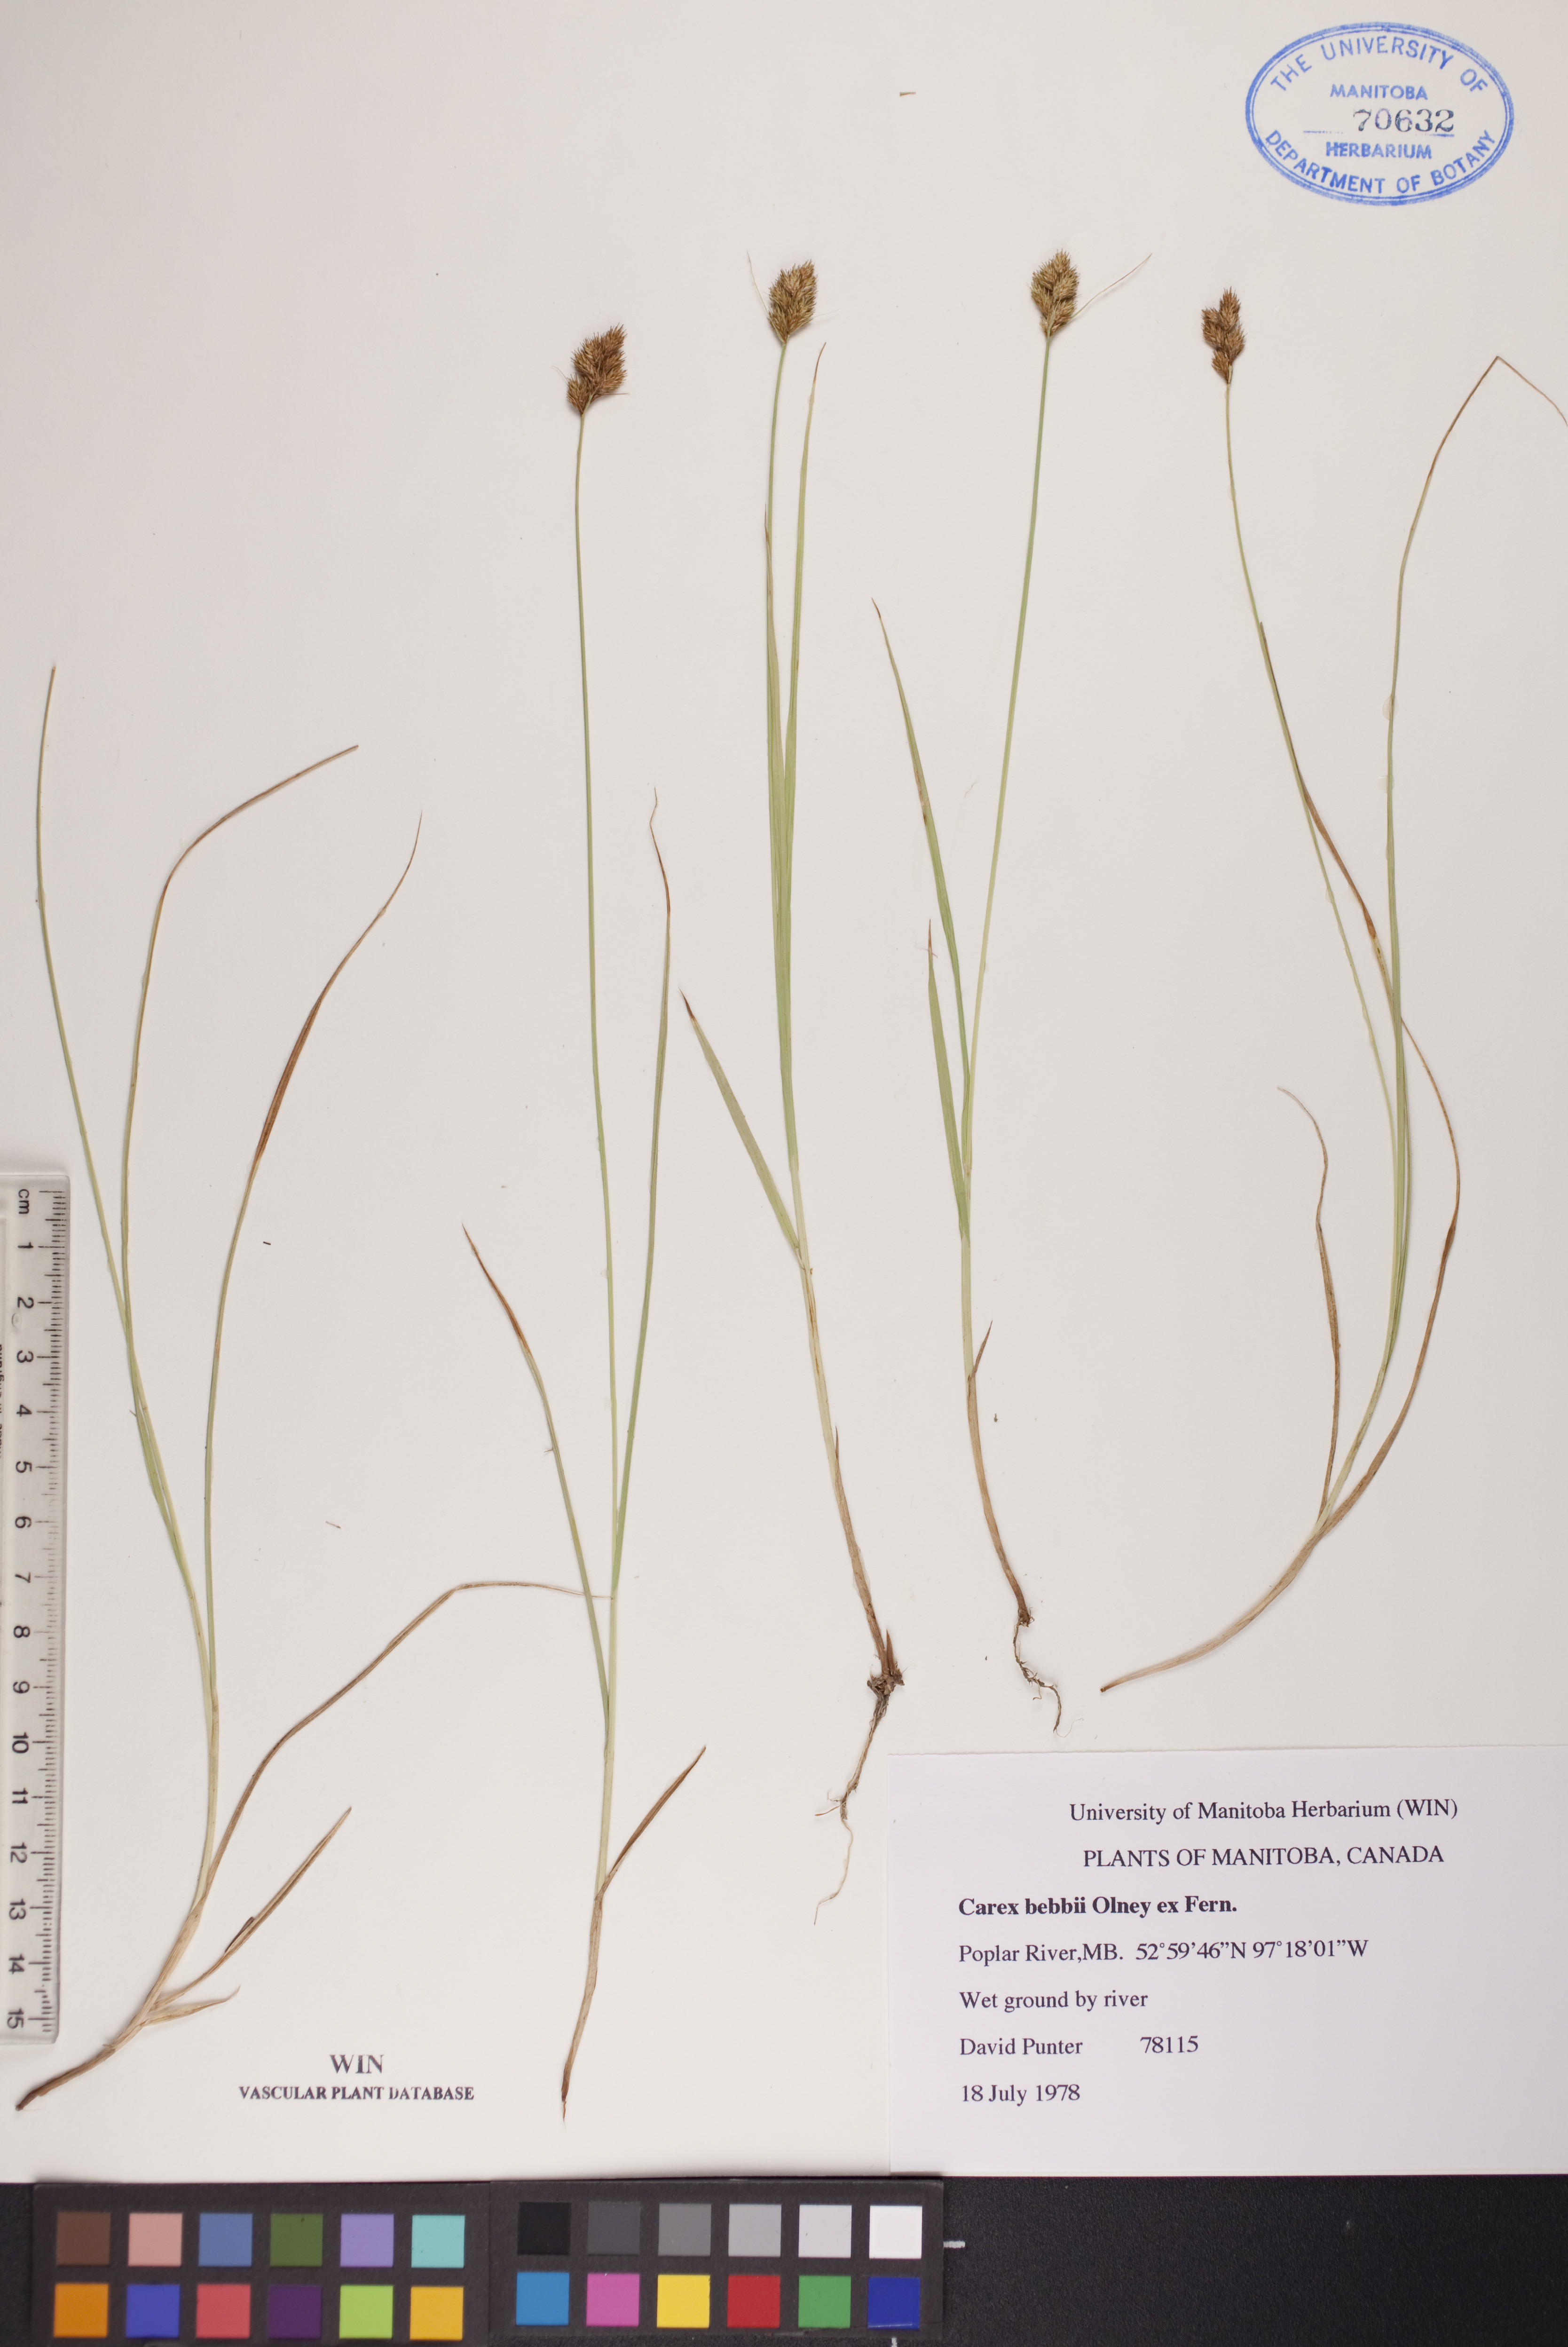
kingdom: Plantae
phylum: Tracheophyta
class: Liliopsida
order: Poales
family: Cyperaceae
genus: Carex
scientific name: Carex bebbii
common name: Bebb's sedge
